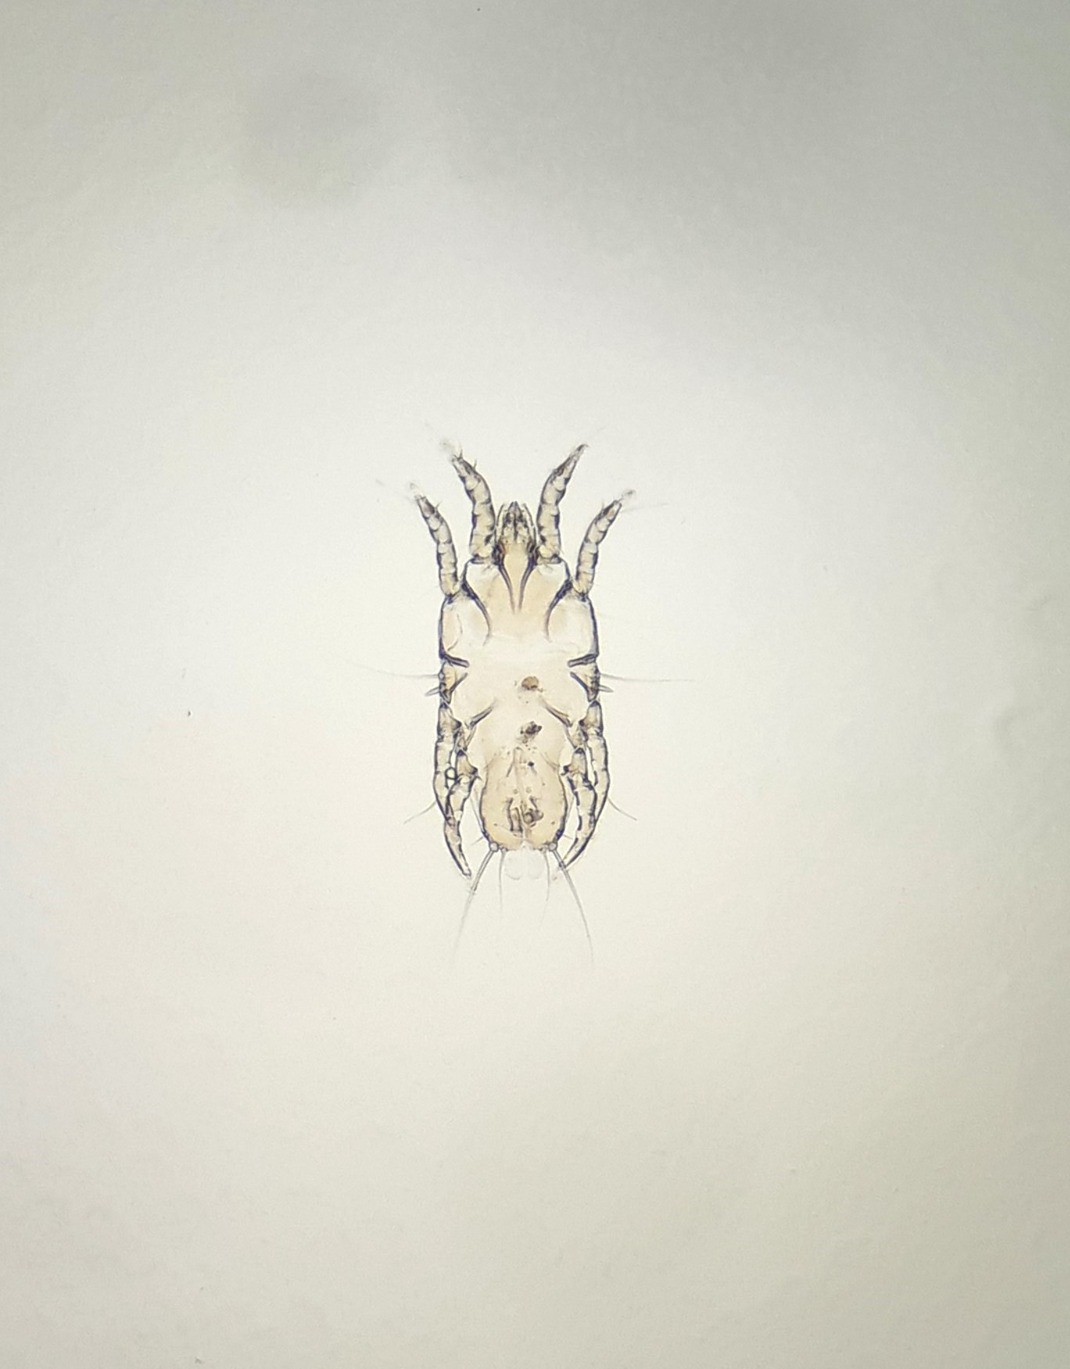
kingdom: Animalia
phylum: Arthropoda
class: Arachnida
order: Sarcoptiformes
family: Proctophyllodidae
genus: Proctophyllodes
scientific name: Proctophyllodes weigoldi
